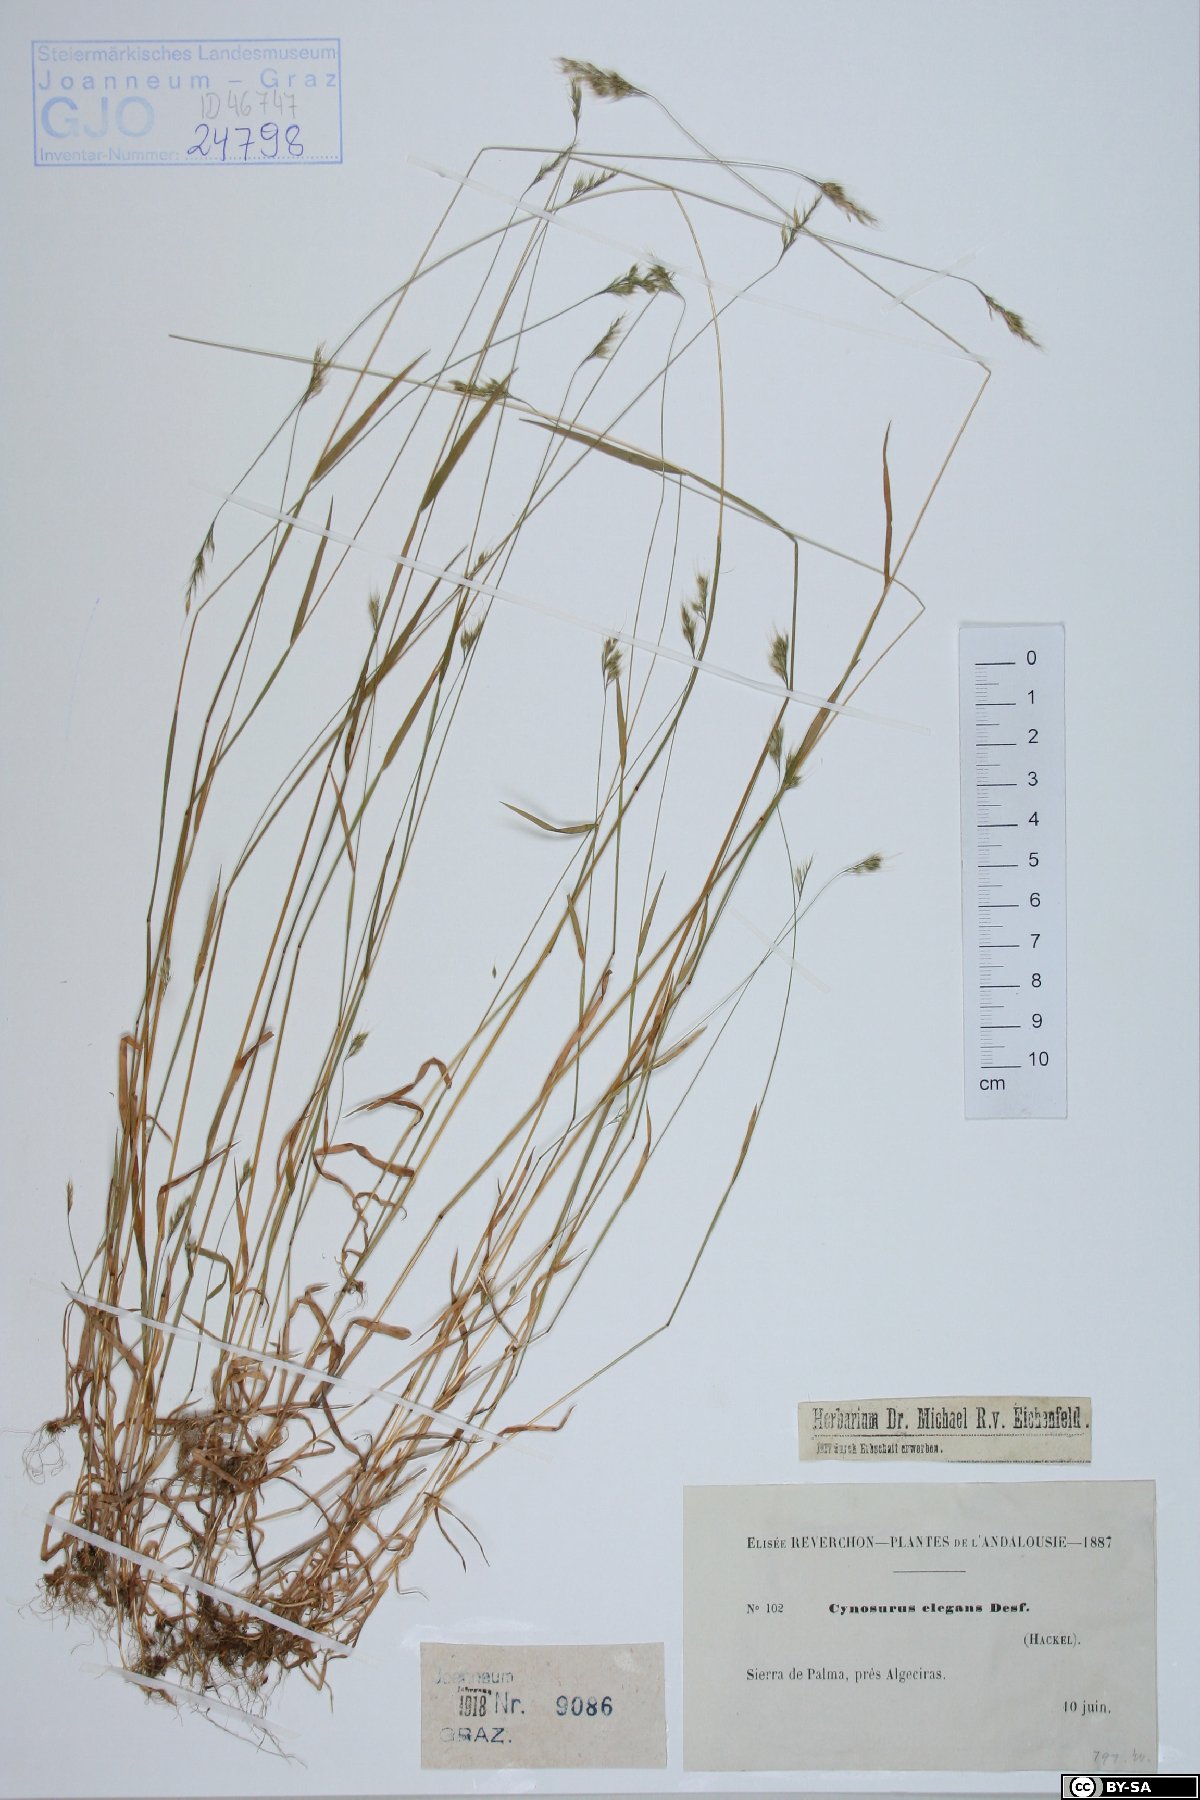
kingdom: Plantae
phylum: Tracheophyta
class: Liliopsida
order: Poales
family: Poaceae
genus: Cynosurus
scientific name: Cynosurus elegans
